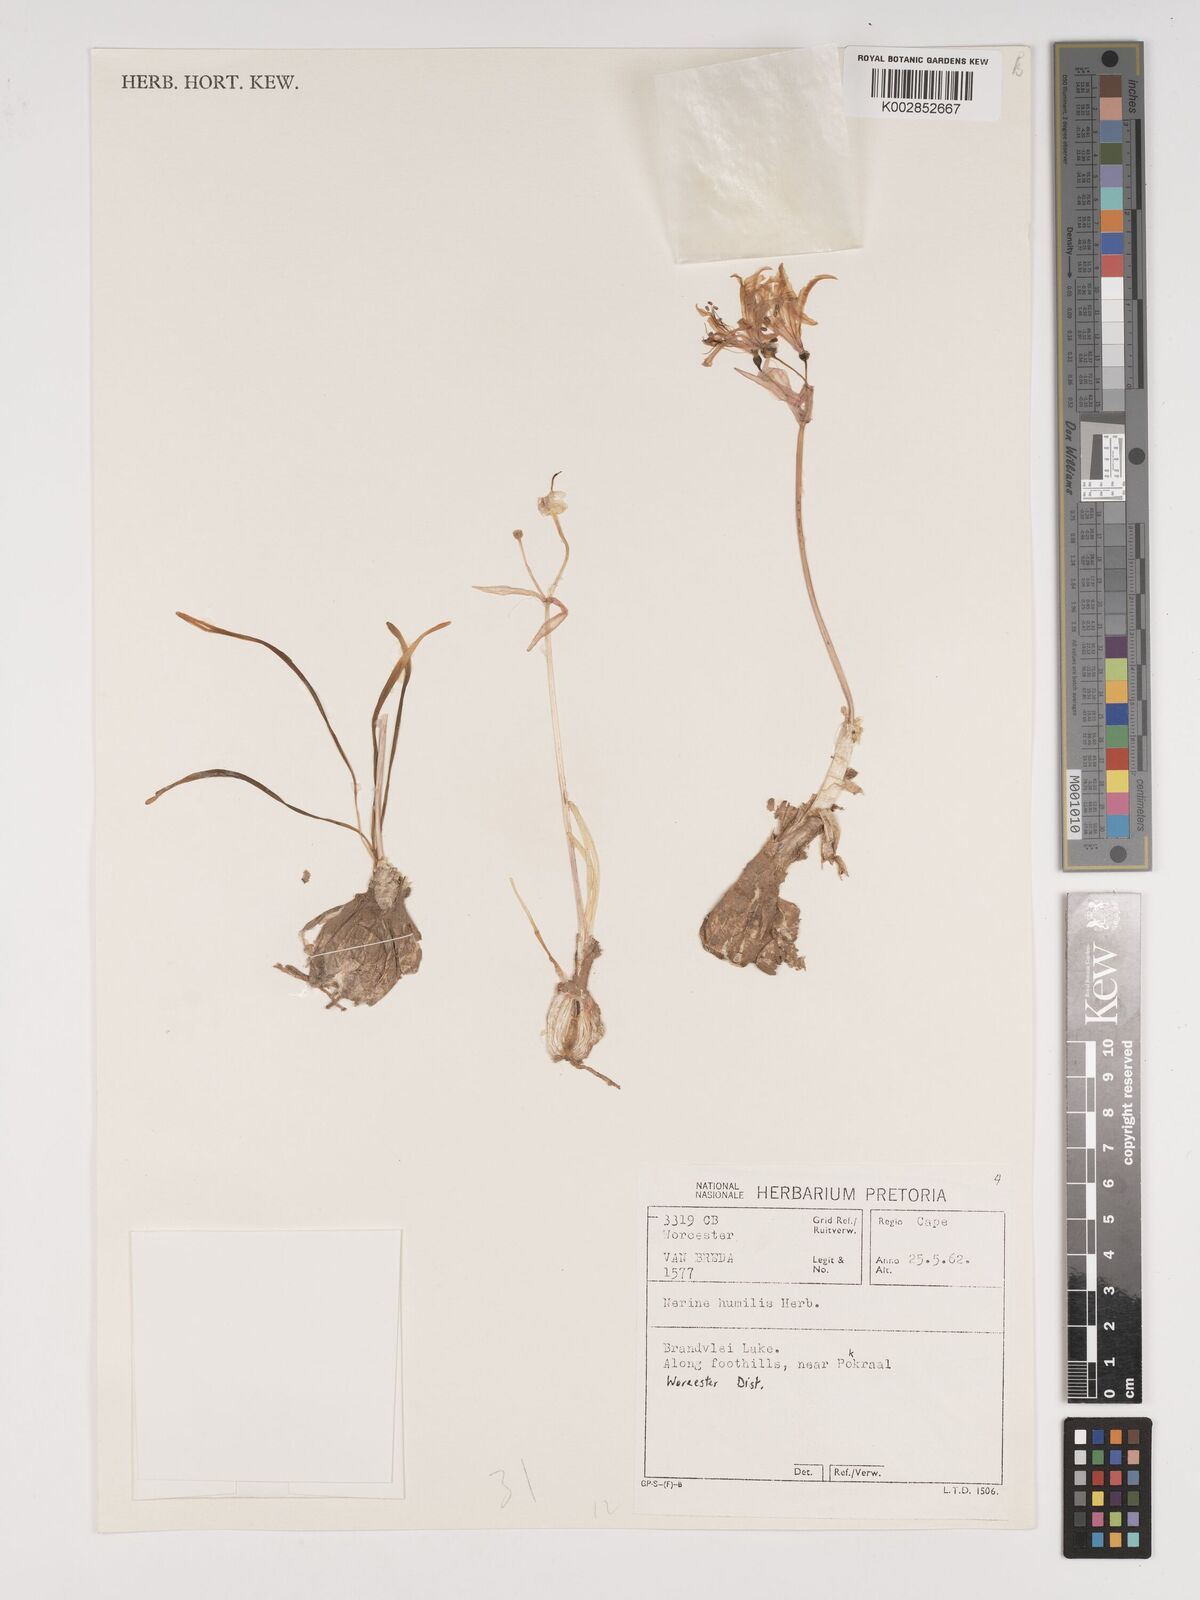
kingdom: Plantae
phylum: Tracheophyta
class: Liliopsida
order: Asparagales
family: Amaryllidaceae
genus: Nerine
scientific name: Nerine humilis
